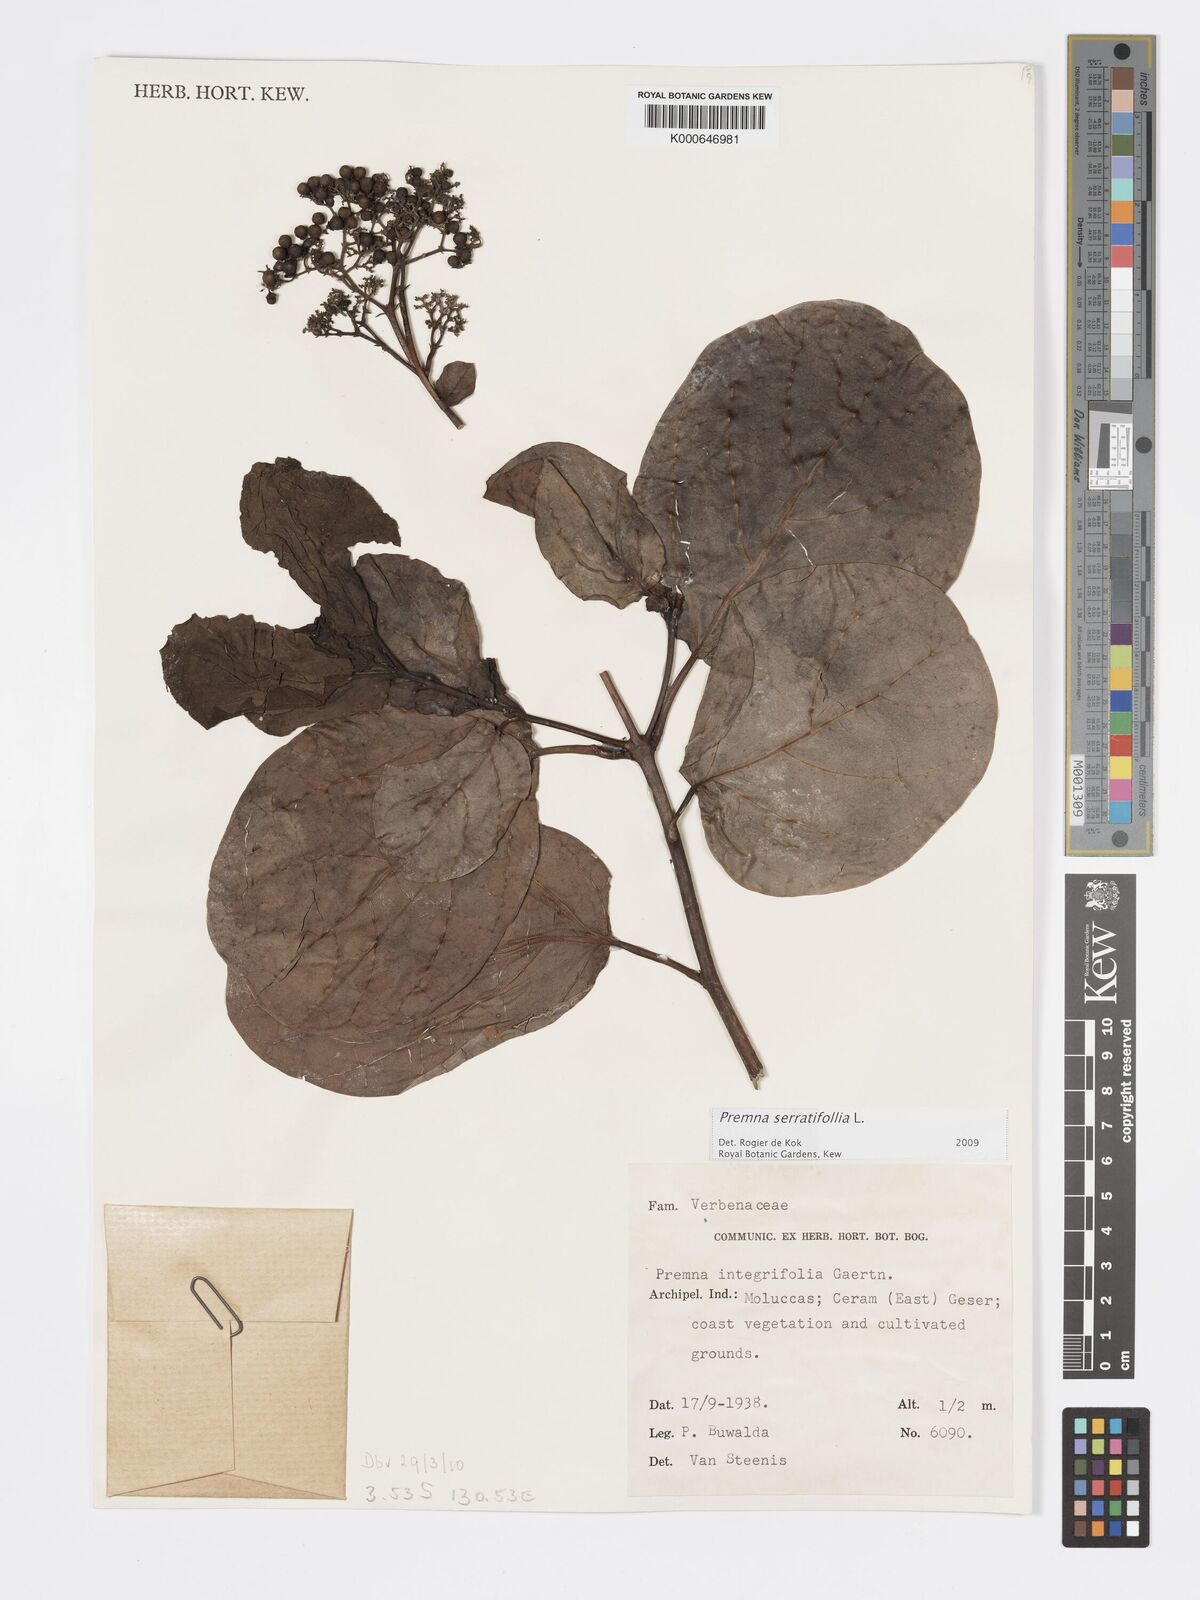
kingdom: Plantae
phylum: Tracheophyta
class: Magnoliopsida
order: Lamiales
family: Lamiaceae
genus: Premna
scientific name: Premna serratifolia
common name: Bastard guelder
